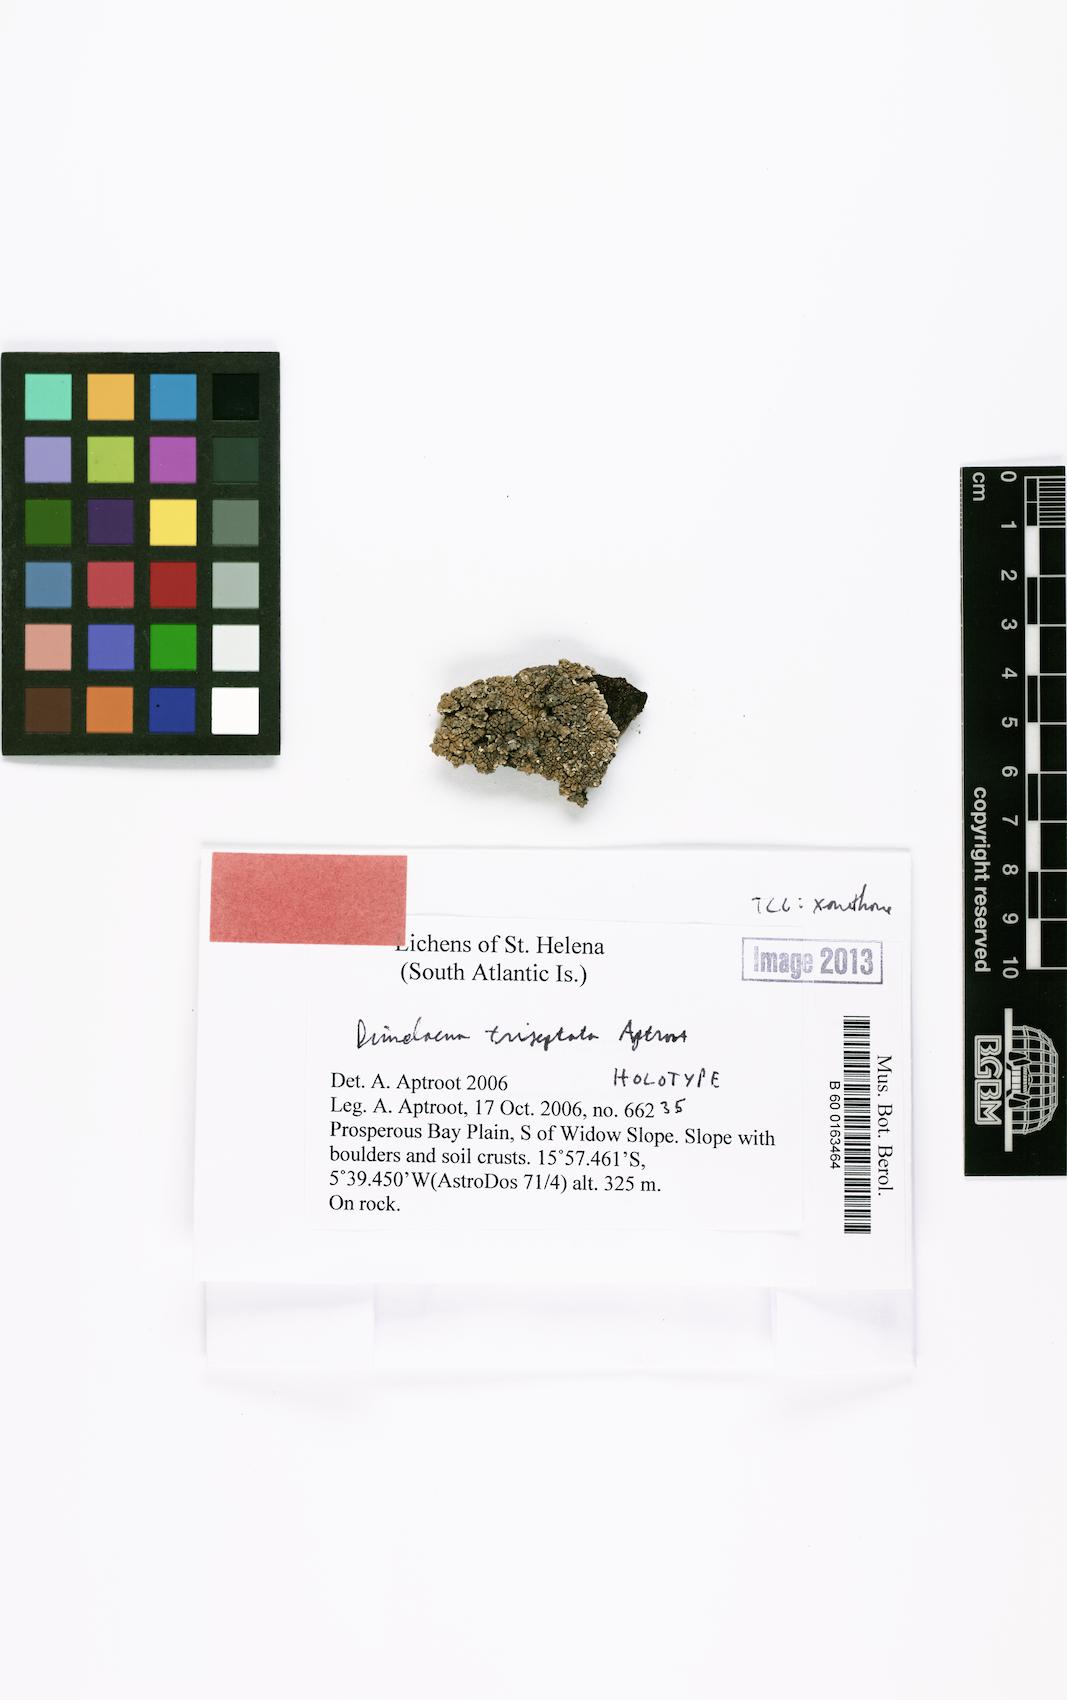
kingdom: Fungi
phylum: Ascomycota
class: Lecanoromycetes
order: Caliciales
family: Caliciaceae
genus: Dimelaena
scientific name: Dimelaena triseptata
